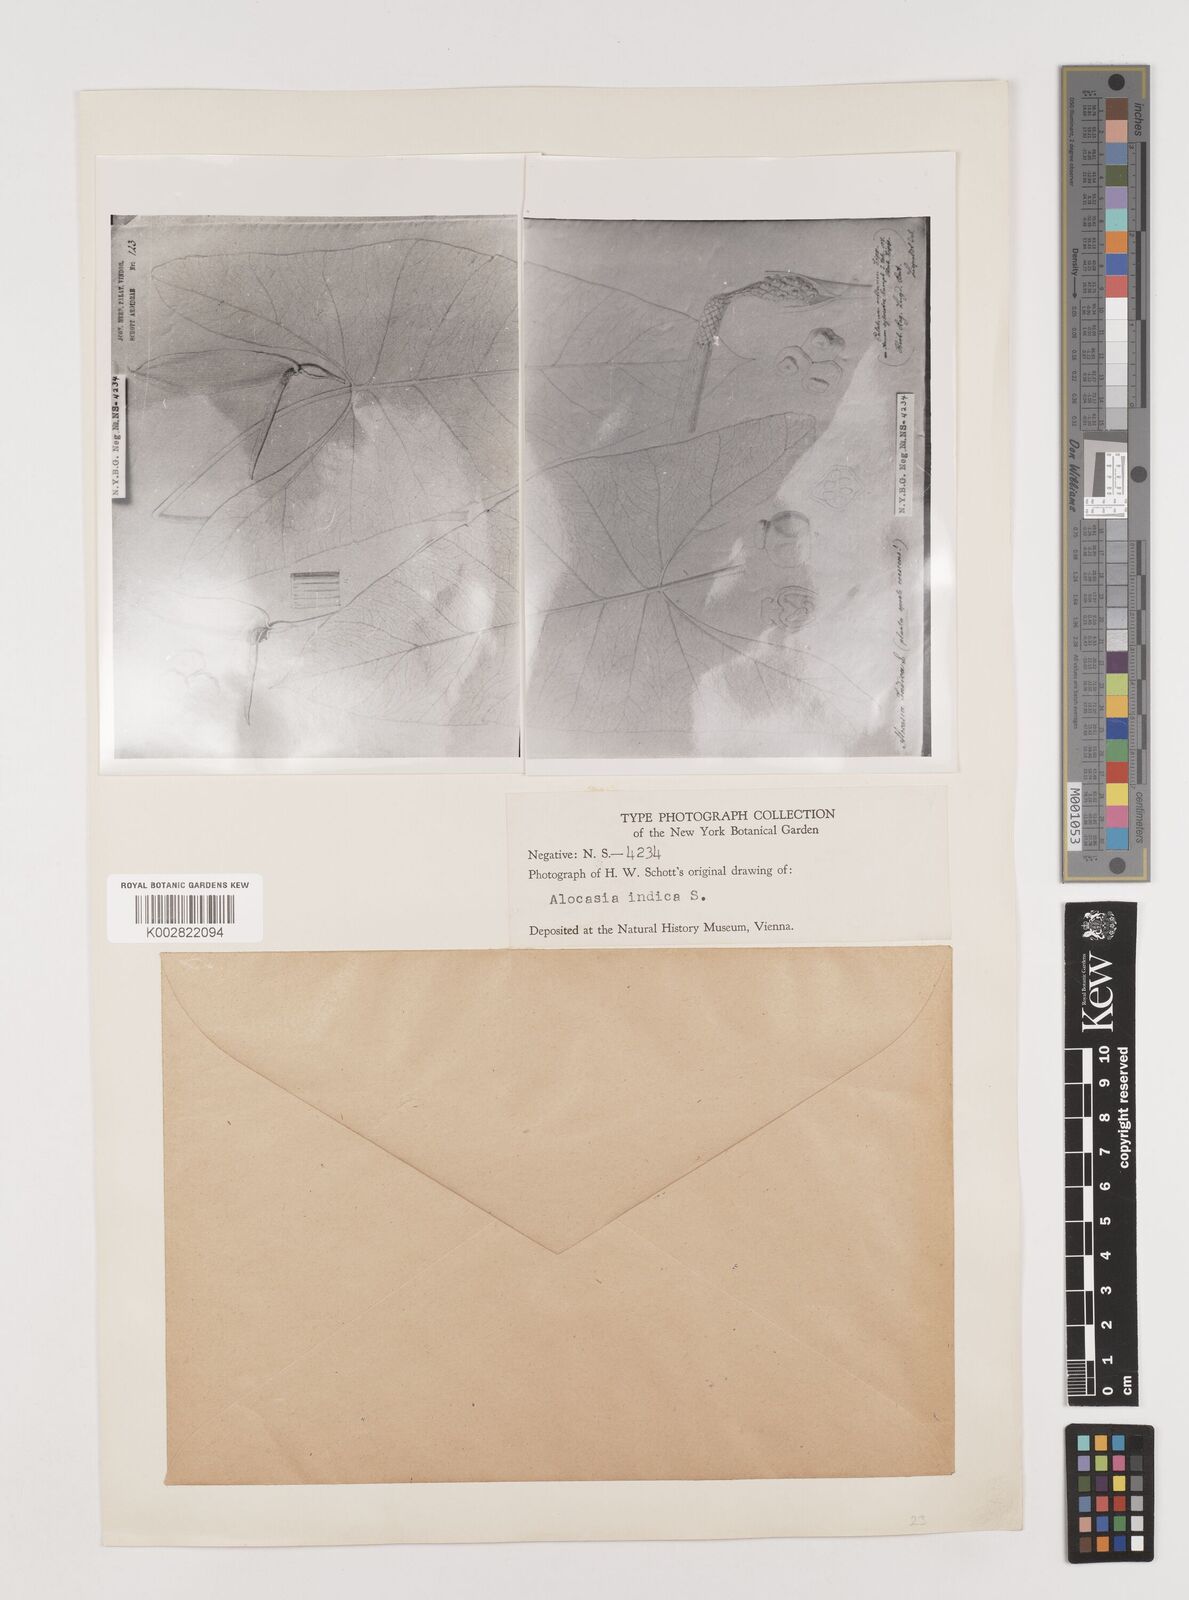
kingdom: Plantae
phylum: Tracheophyta
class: Liliopsida
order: Alismatales
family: Araceae
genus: Alocasia
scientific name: Alocasia macrorrhizos
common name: Giant taro
